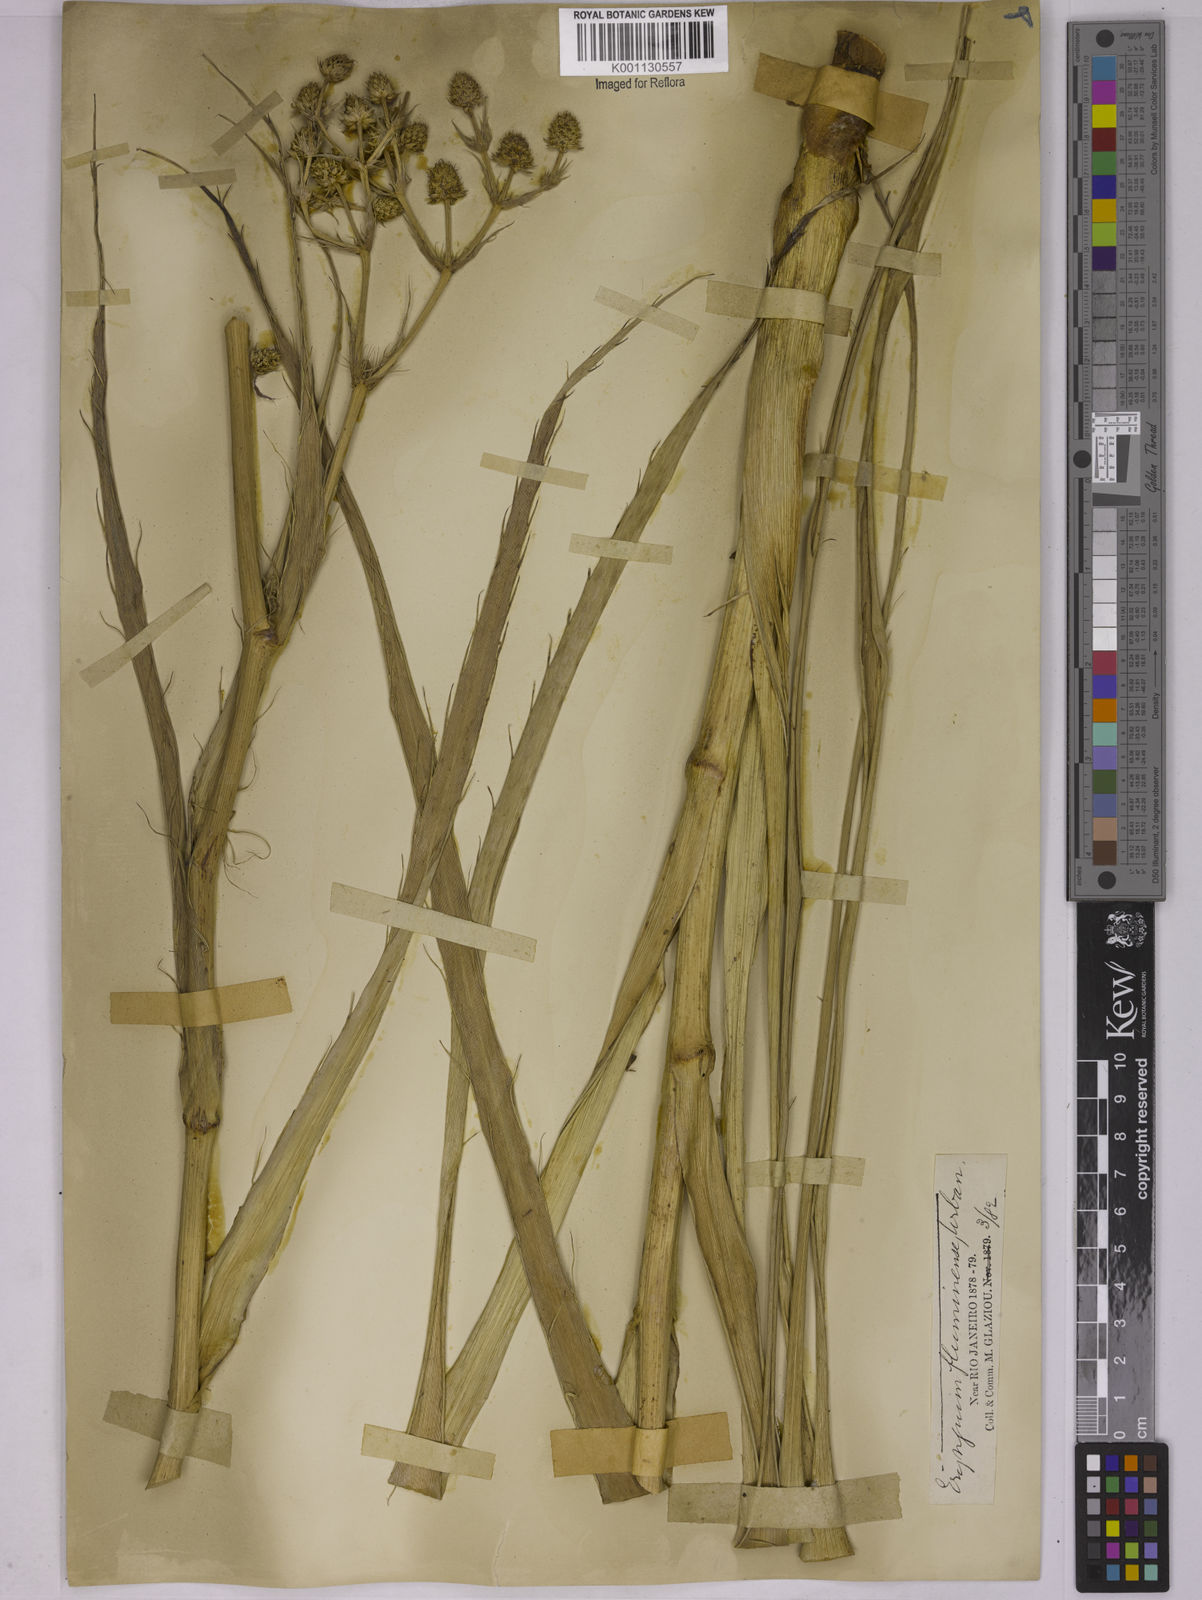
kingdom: Plantae
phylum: Tracheophyta
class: Magnoliopsida
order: Apiales
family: Apiaceae
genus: Eryngium
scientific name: Eryngium fluminense
